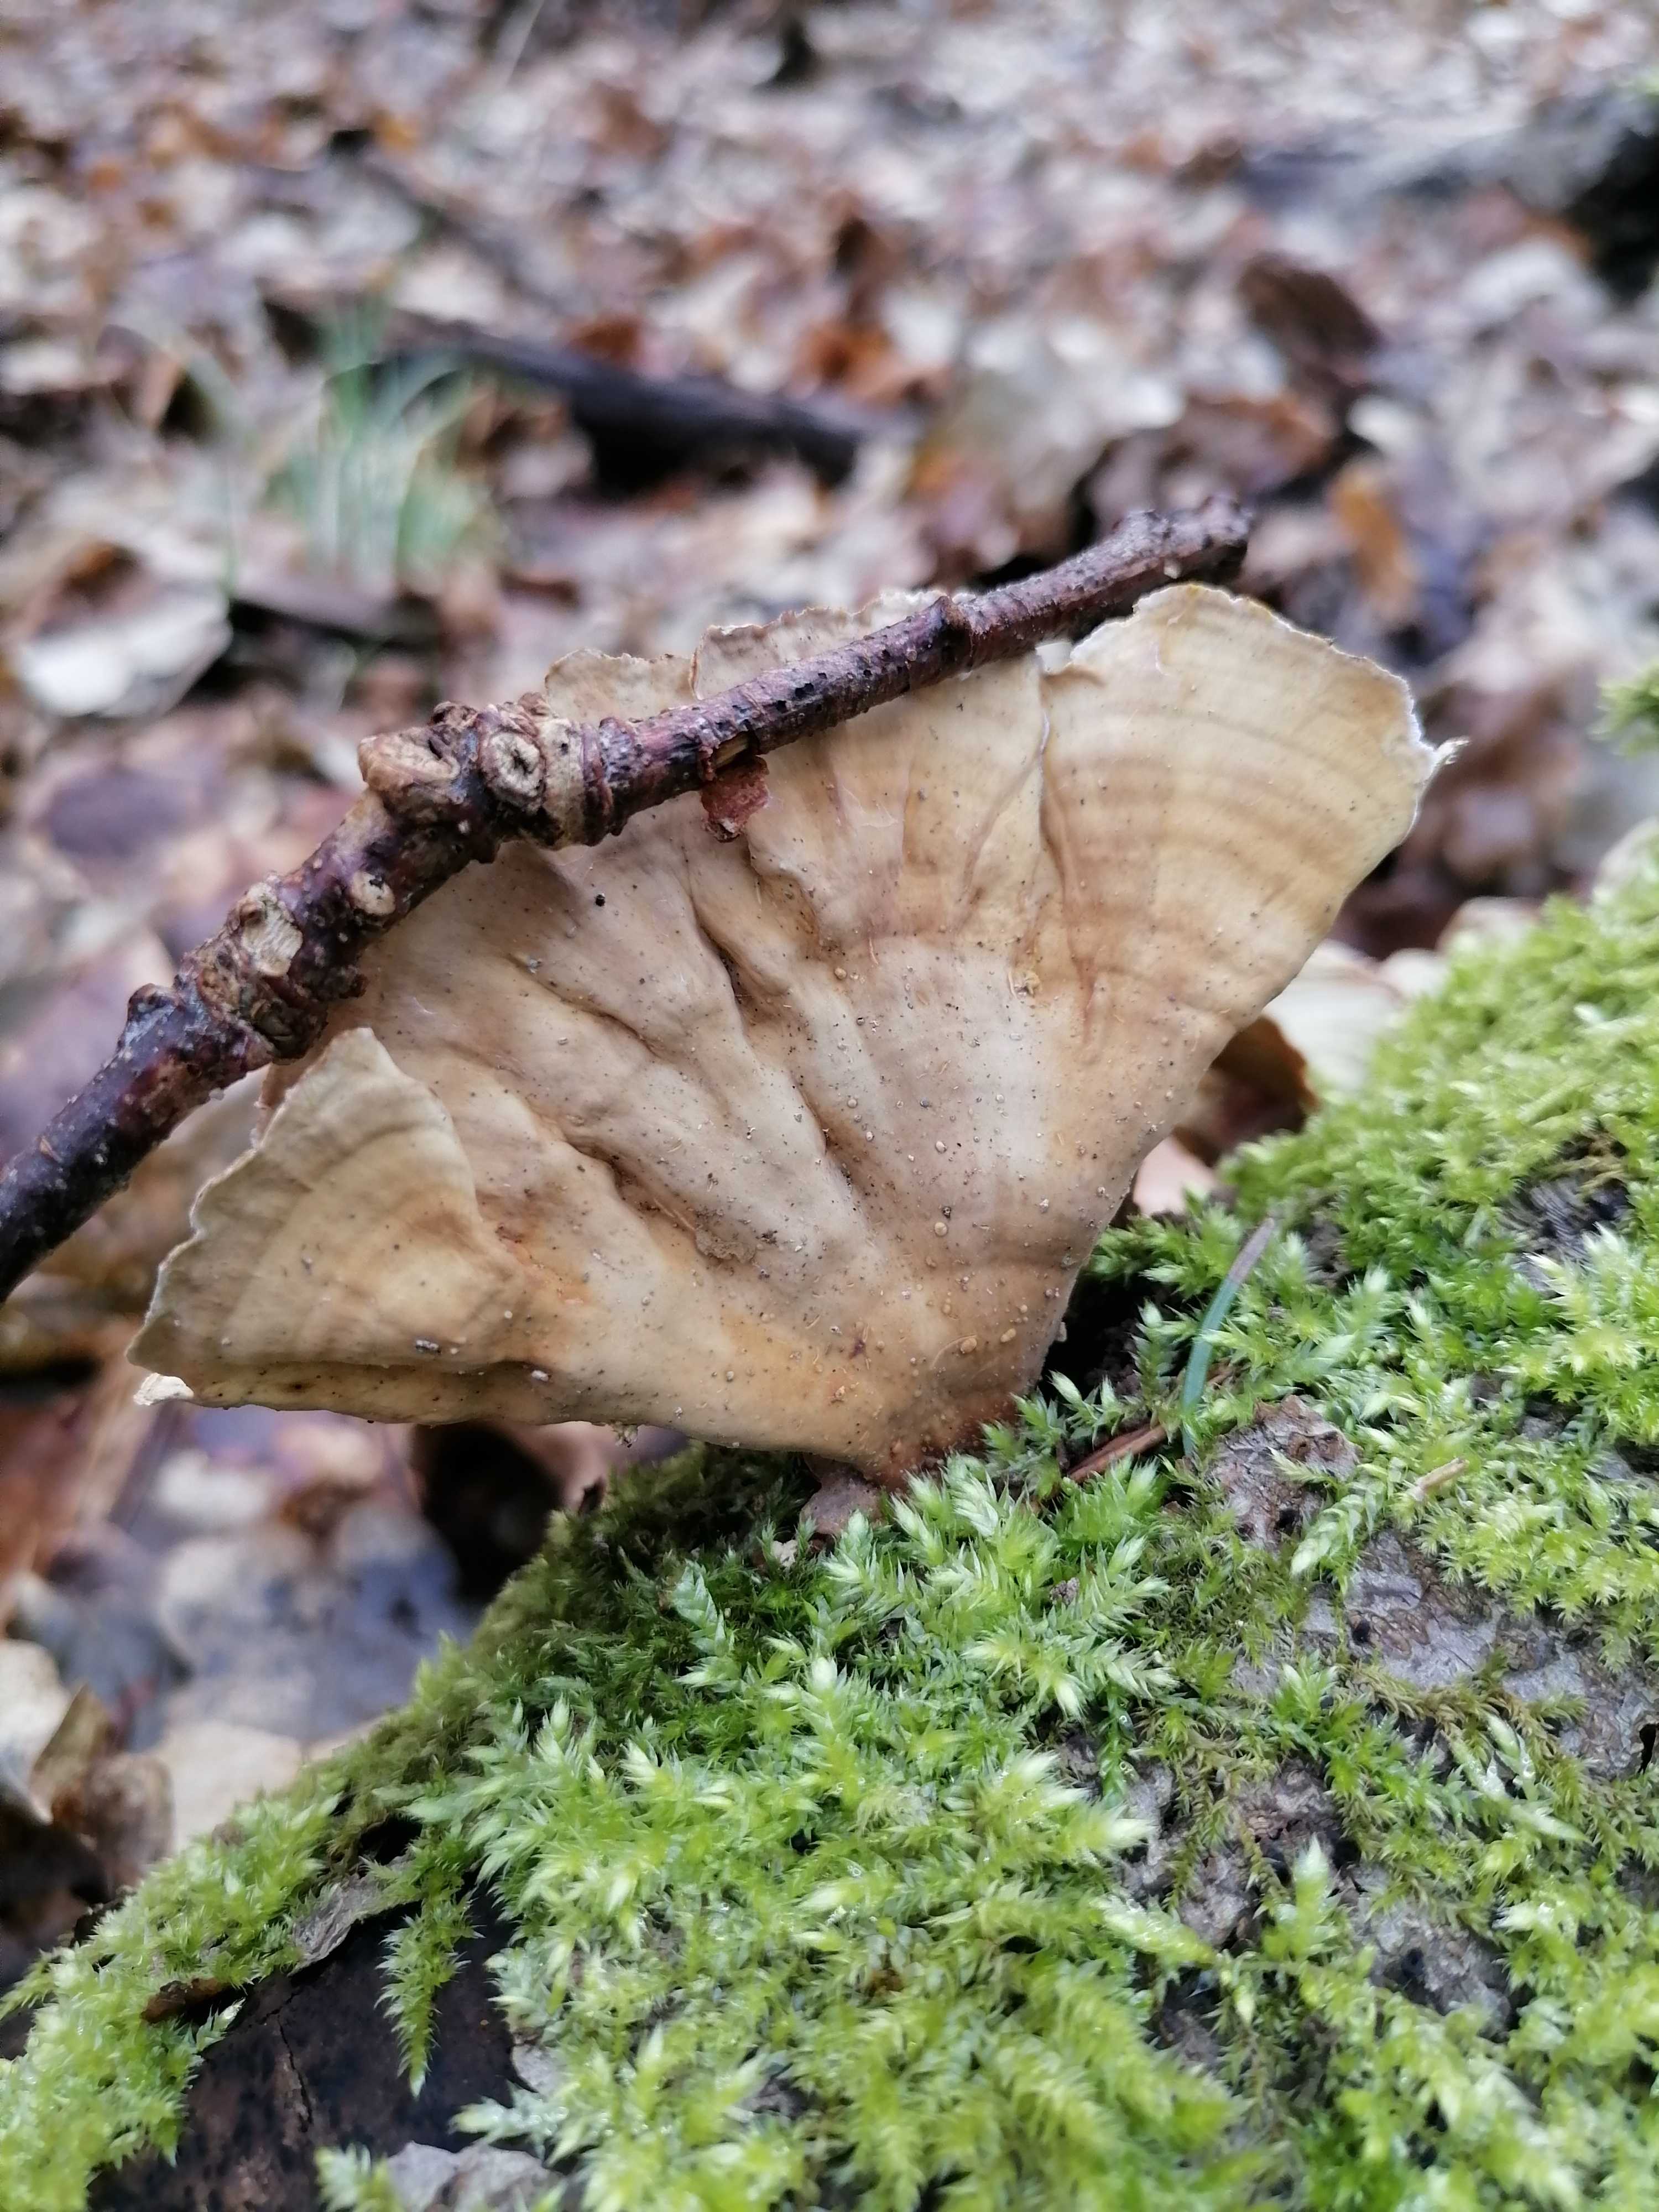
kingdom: Fungi
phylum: Basidiomycota
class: Agaricomycetes
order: Russulales
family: Stereaceae
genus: Stereum
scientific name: Stereum subtomentosum
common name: smuk lædersvamp
